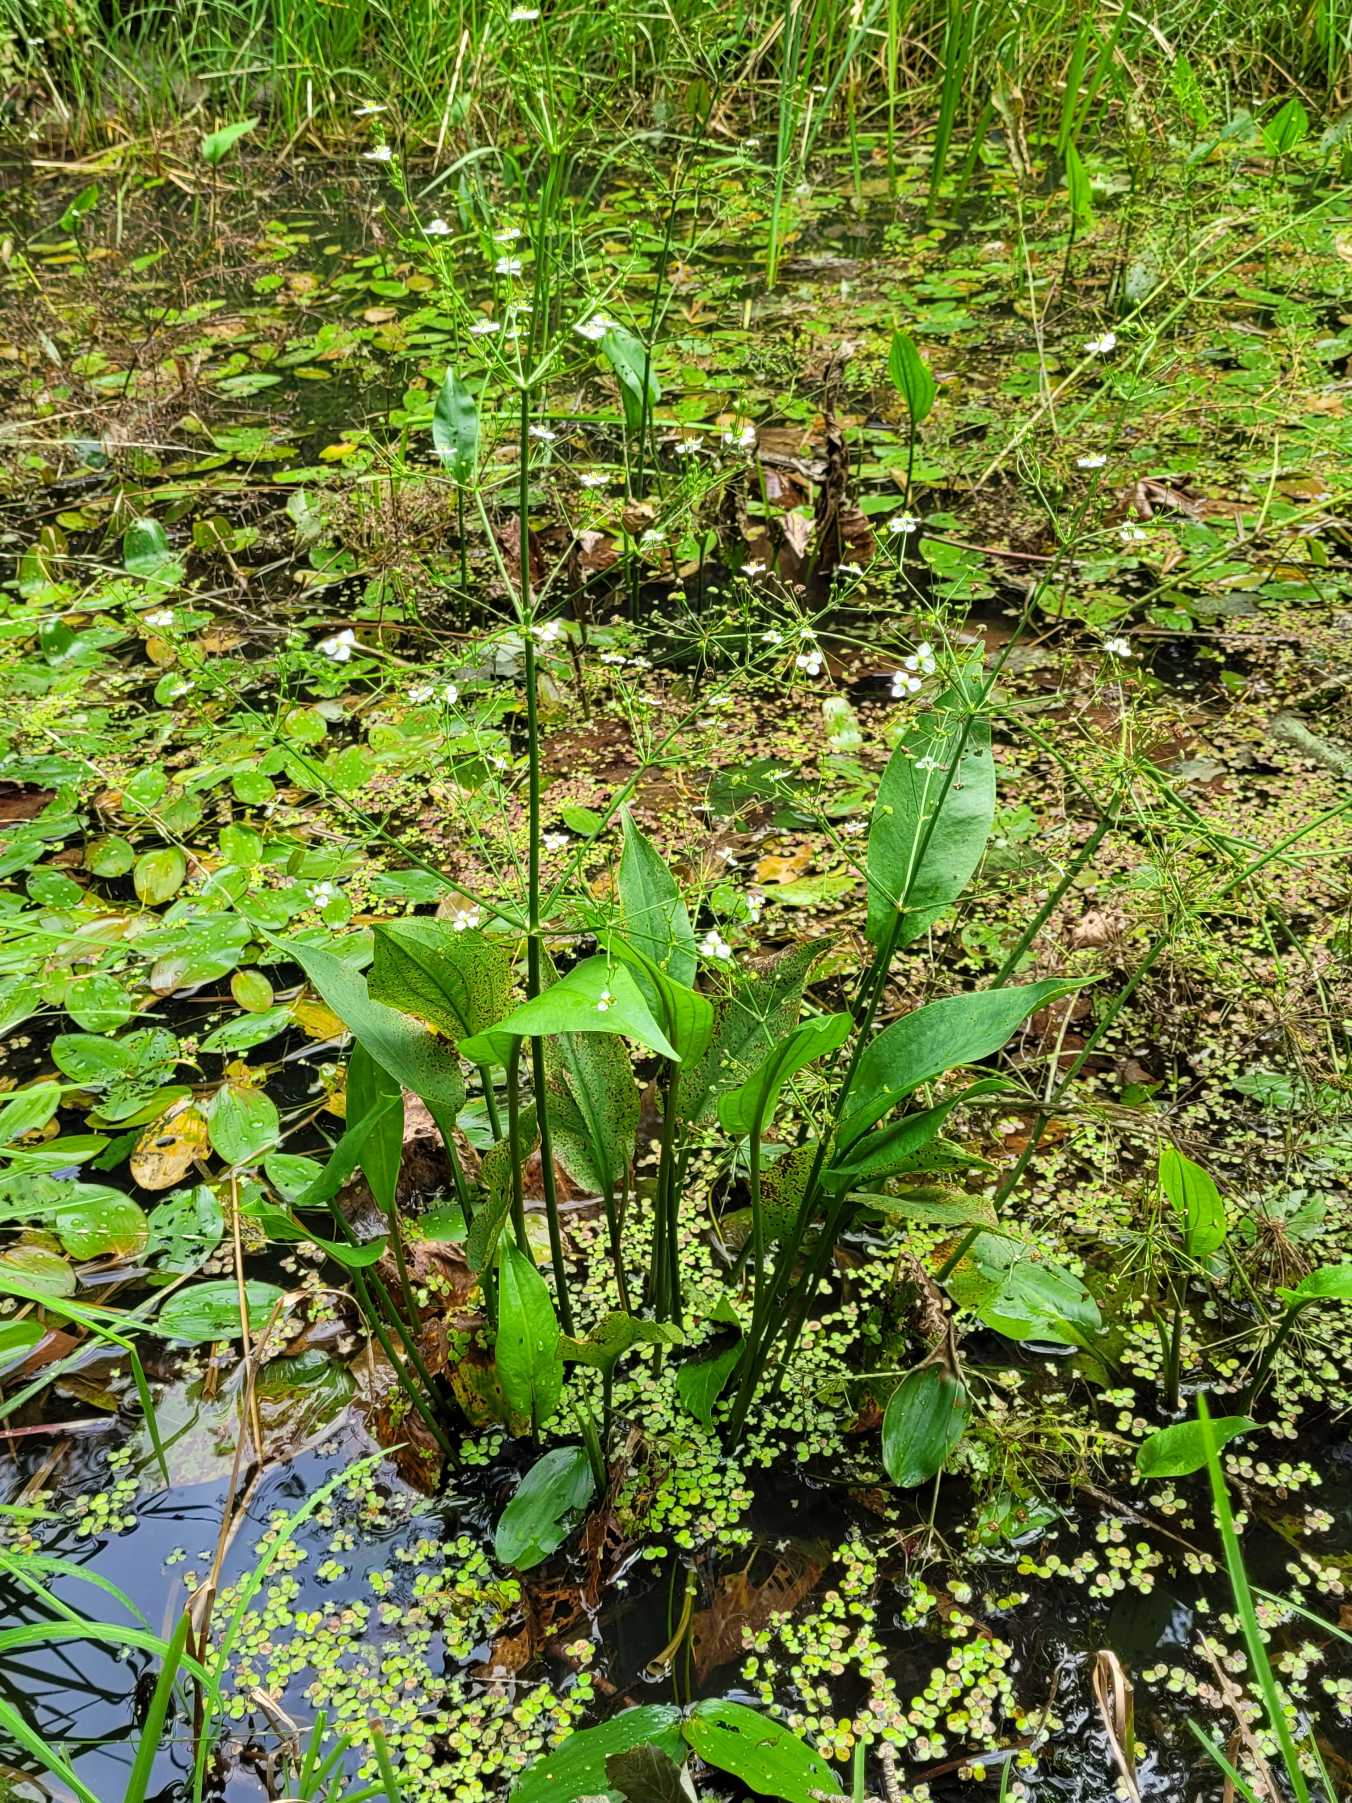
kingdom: Plantae
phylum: Tracheophyta
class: Liliopsida
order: Alismatales
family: Alismataceae
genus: Alisma
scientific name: Alisma plantago-aquatica
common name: Vejbred-skeblad
